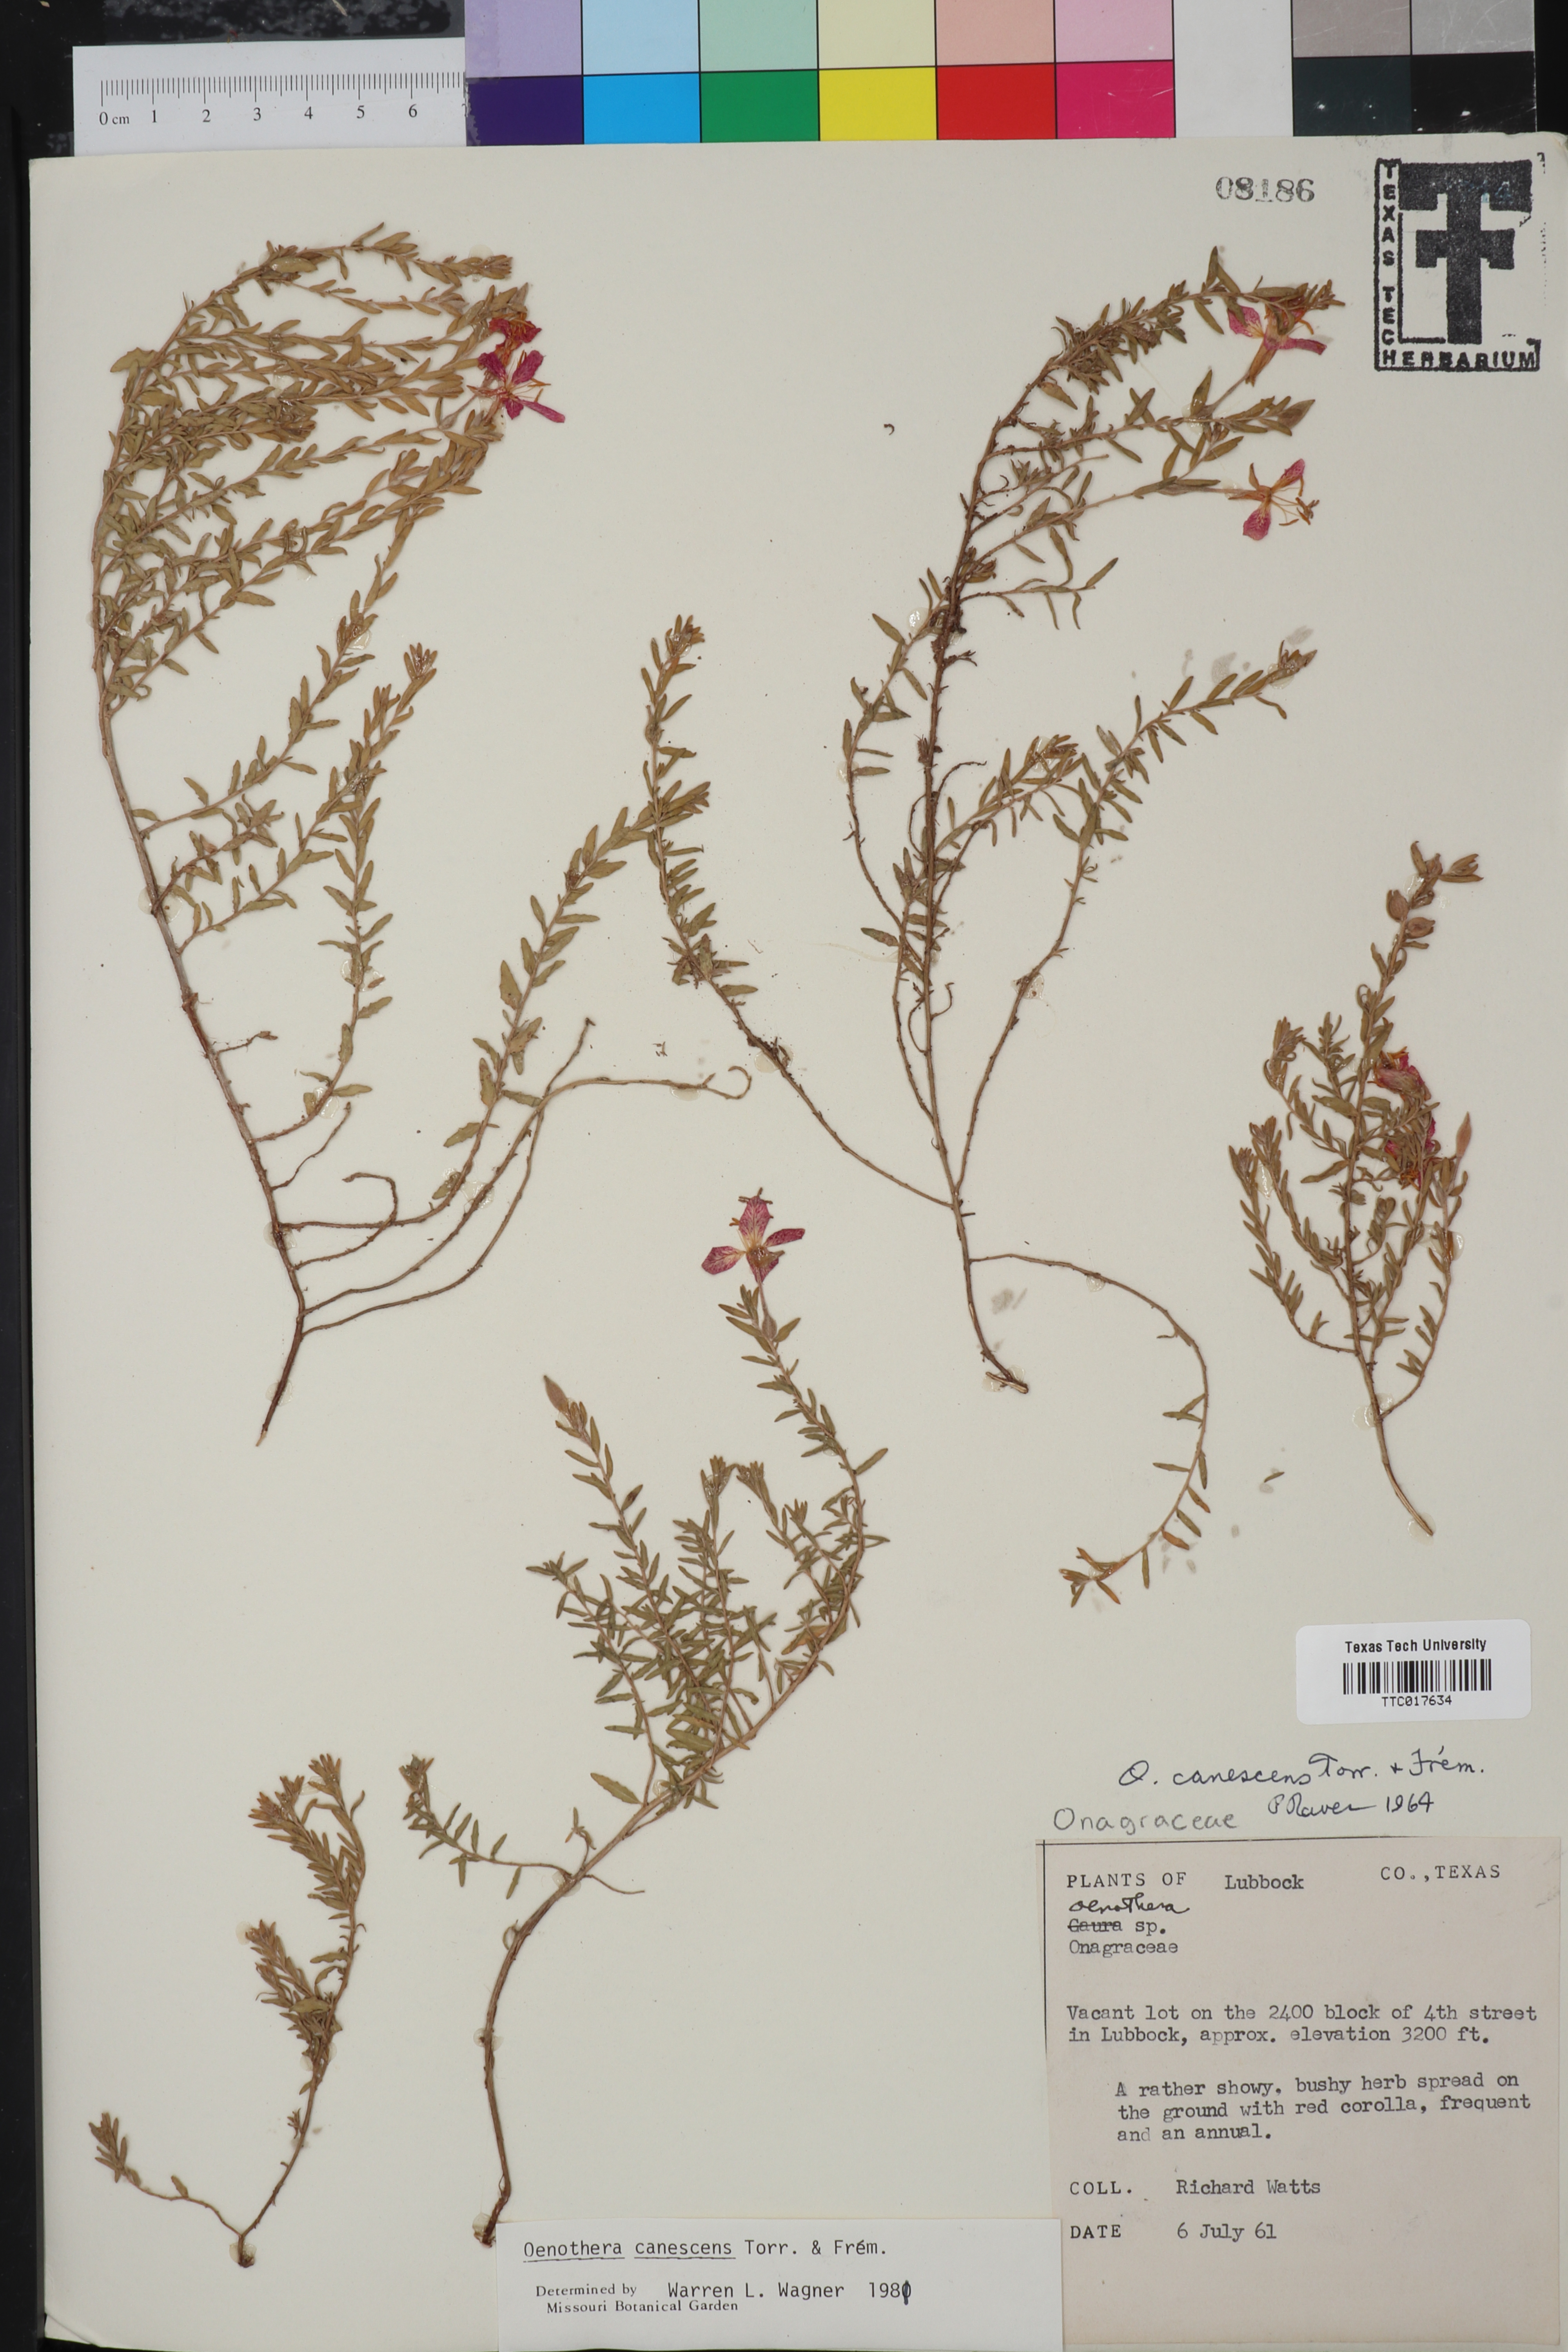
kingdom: Plantae
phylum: Tracheophyta
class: Magnoliopsida
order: Myrtales
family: Onagraceae
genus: Oenothera
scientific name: Oenothera canescens
